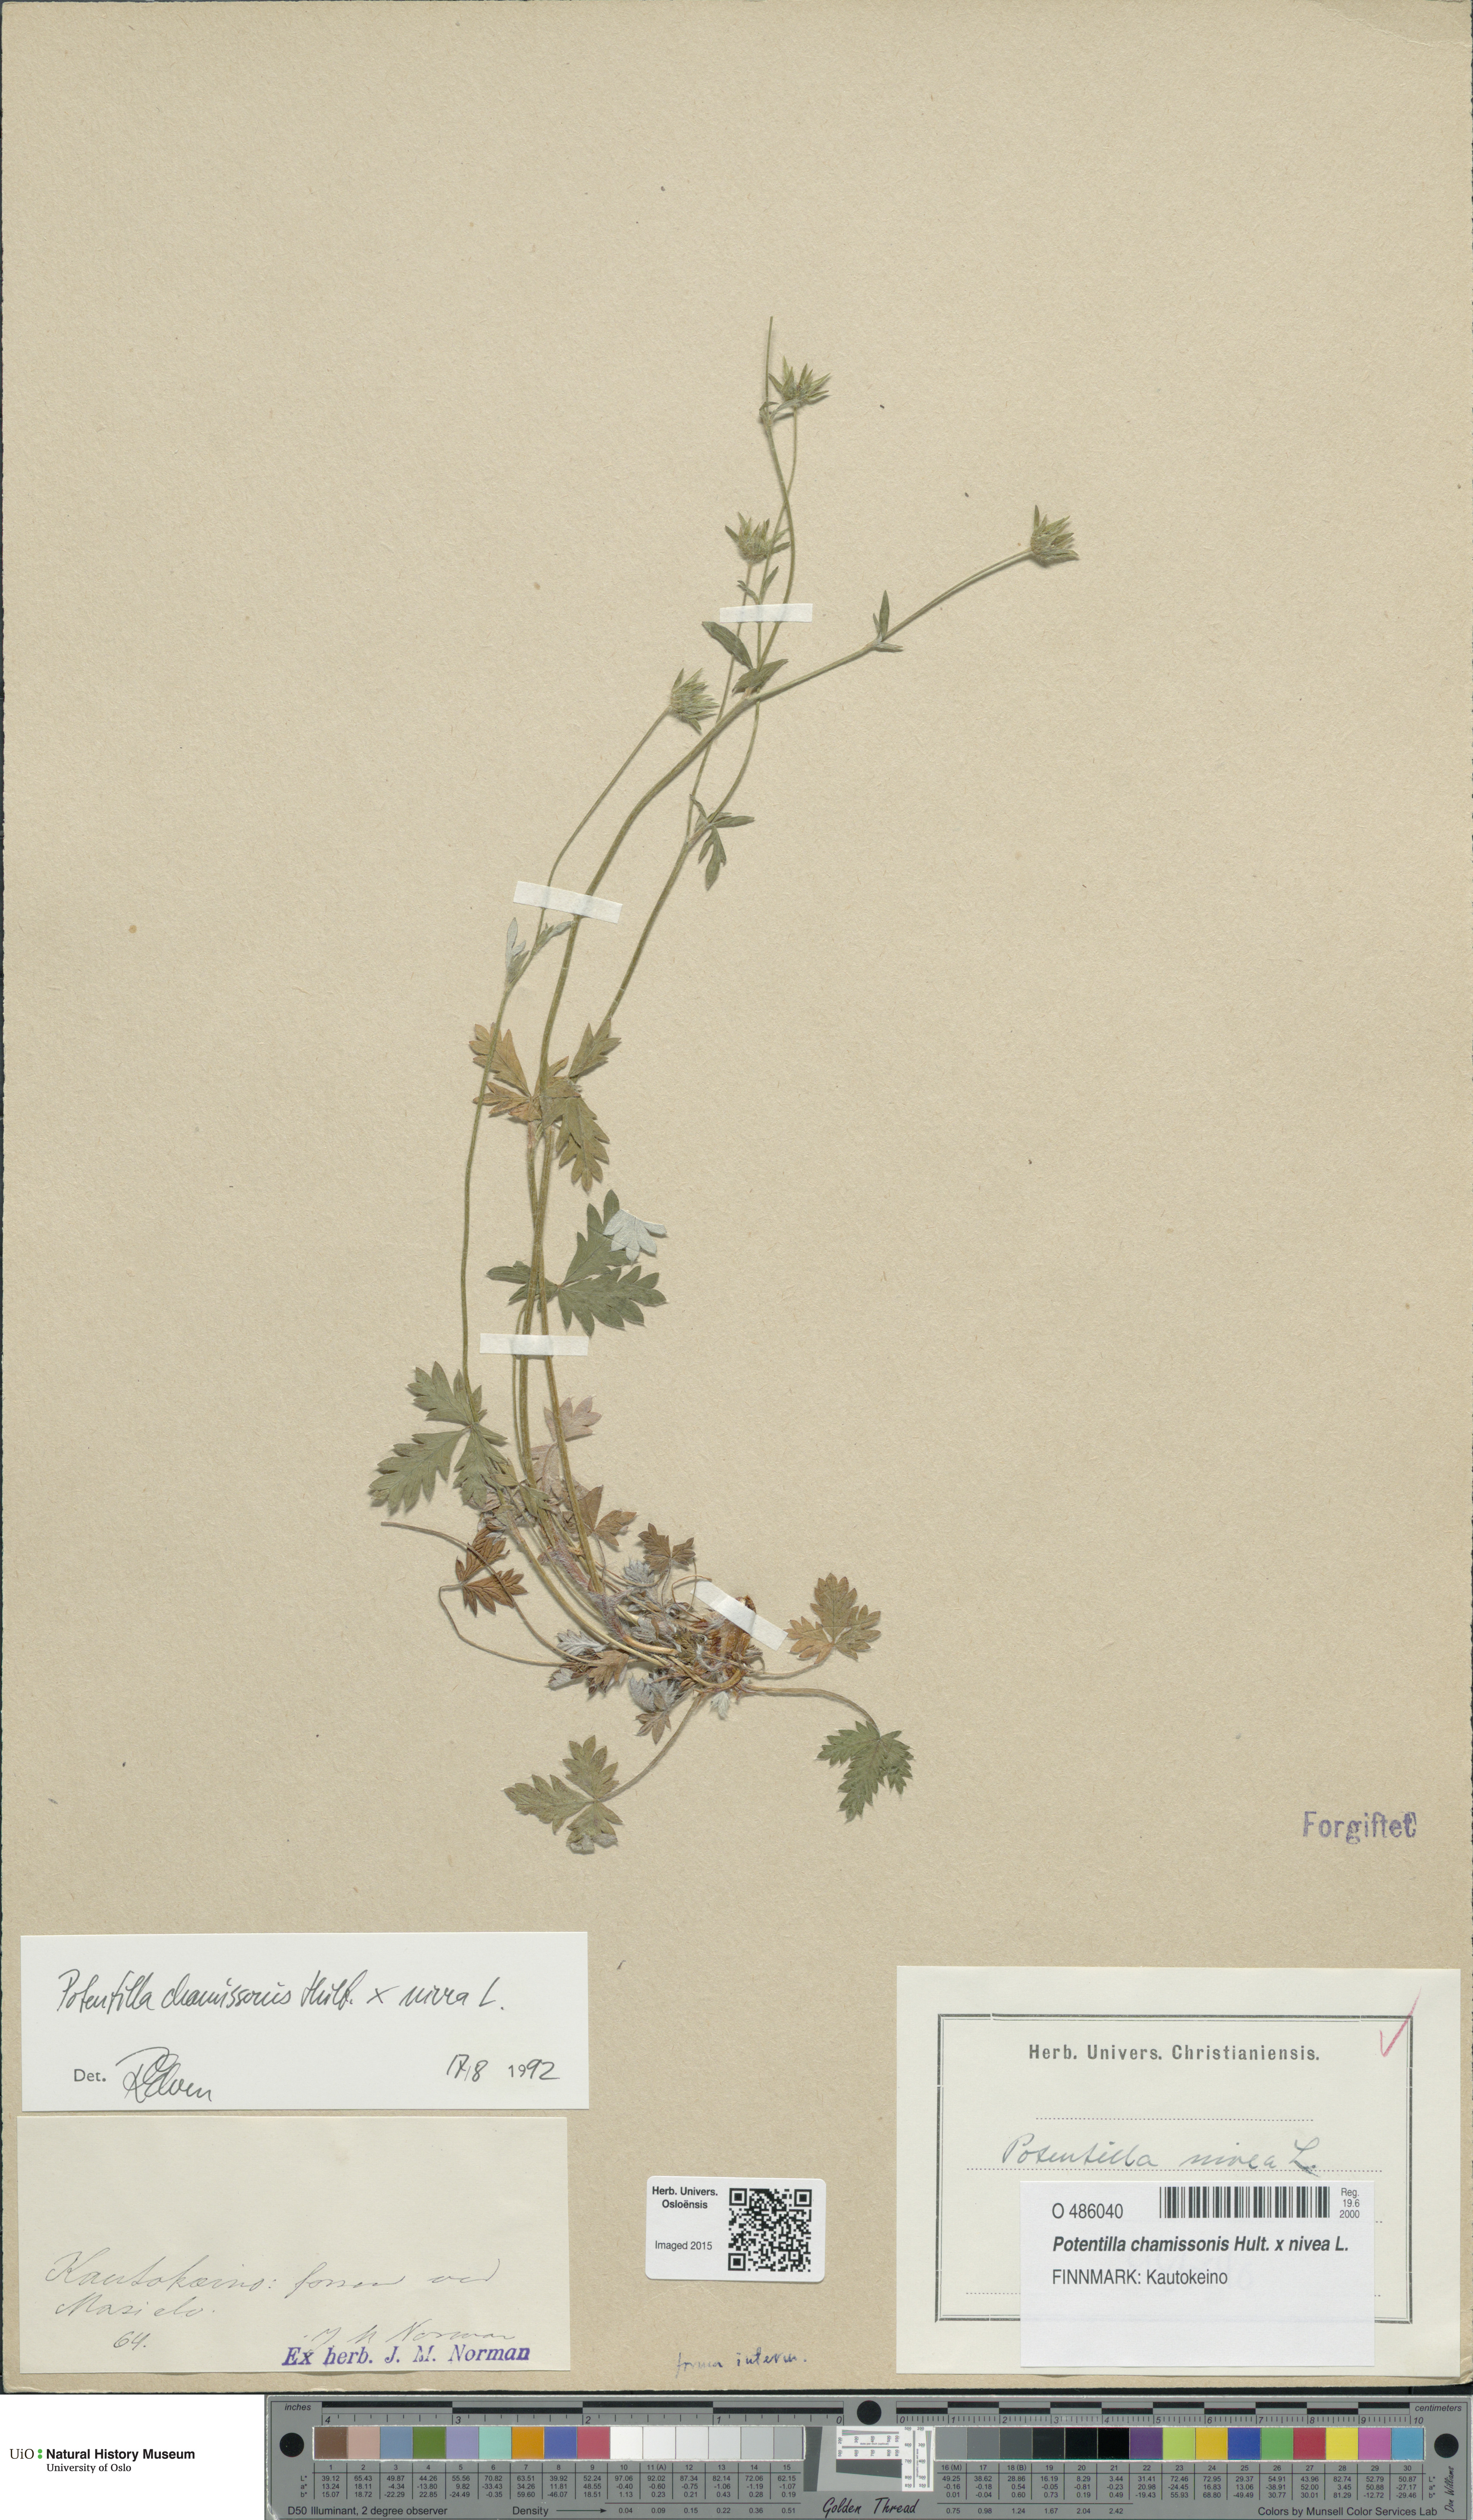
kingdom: Plantae
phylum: Tracheophyta
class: Magnoliopsida
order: Rosales
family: Rosaceae
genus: Potentilla
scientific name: Potentilla
